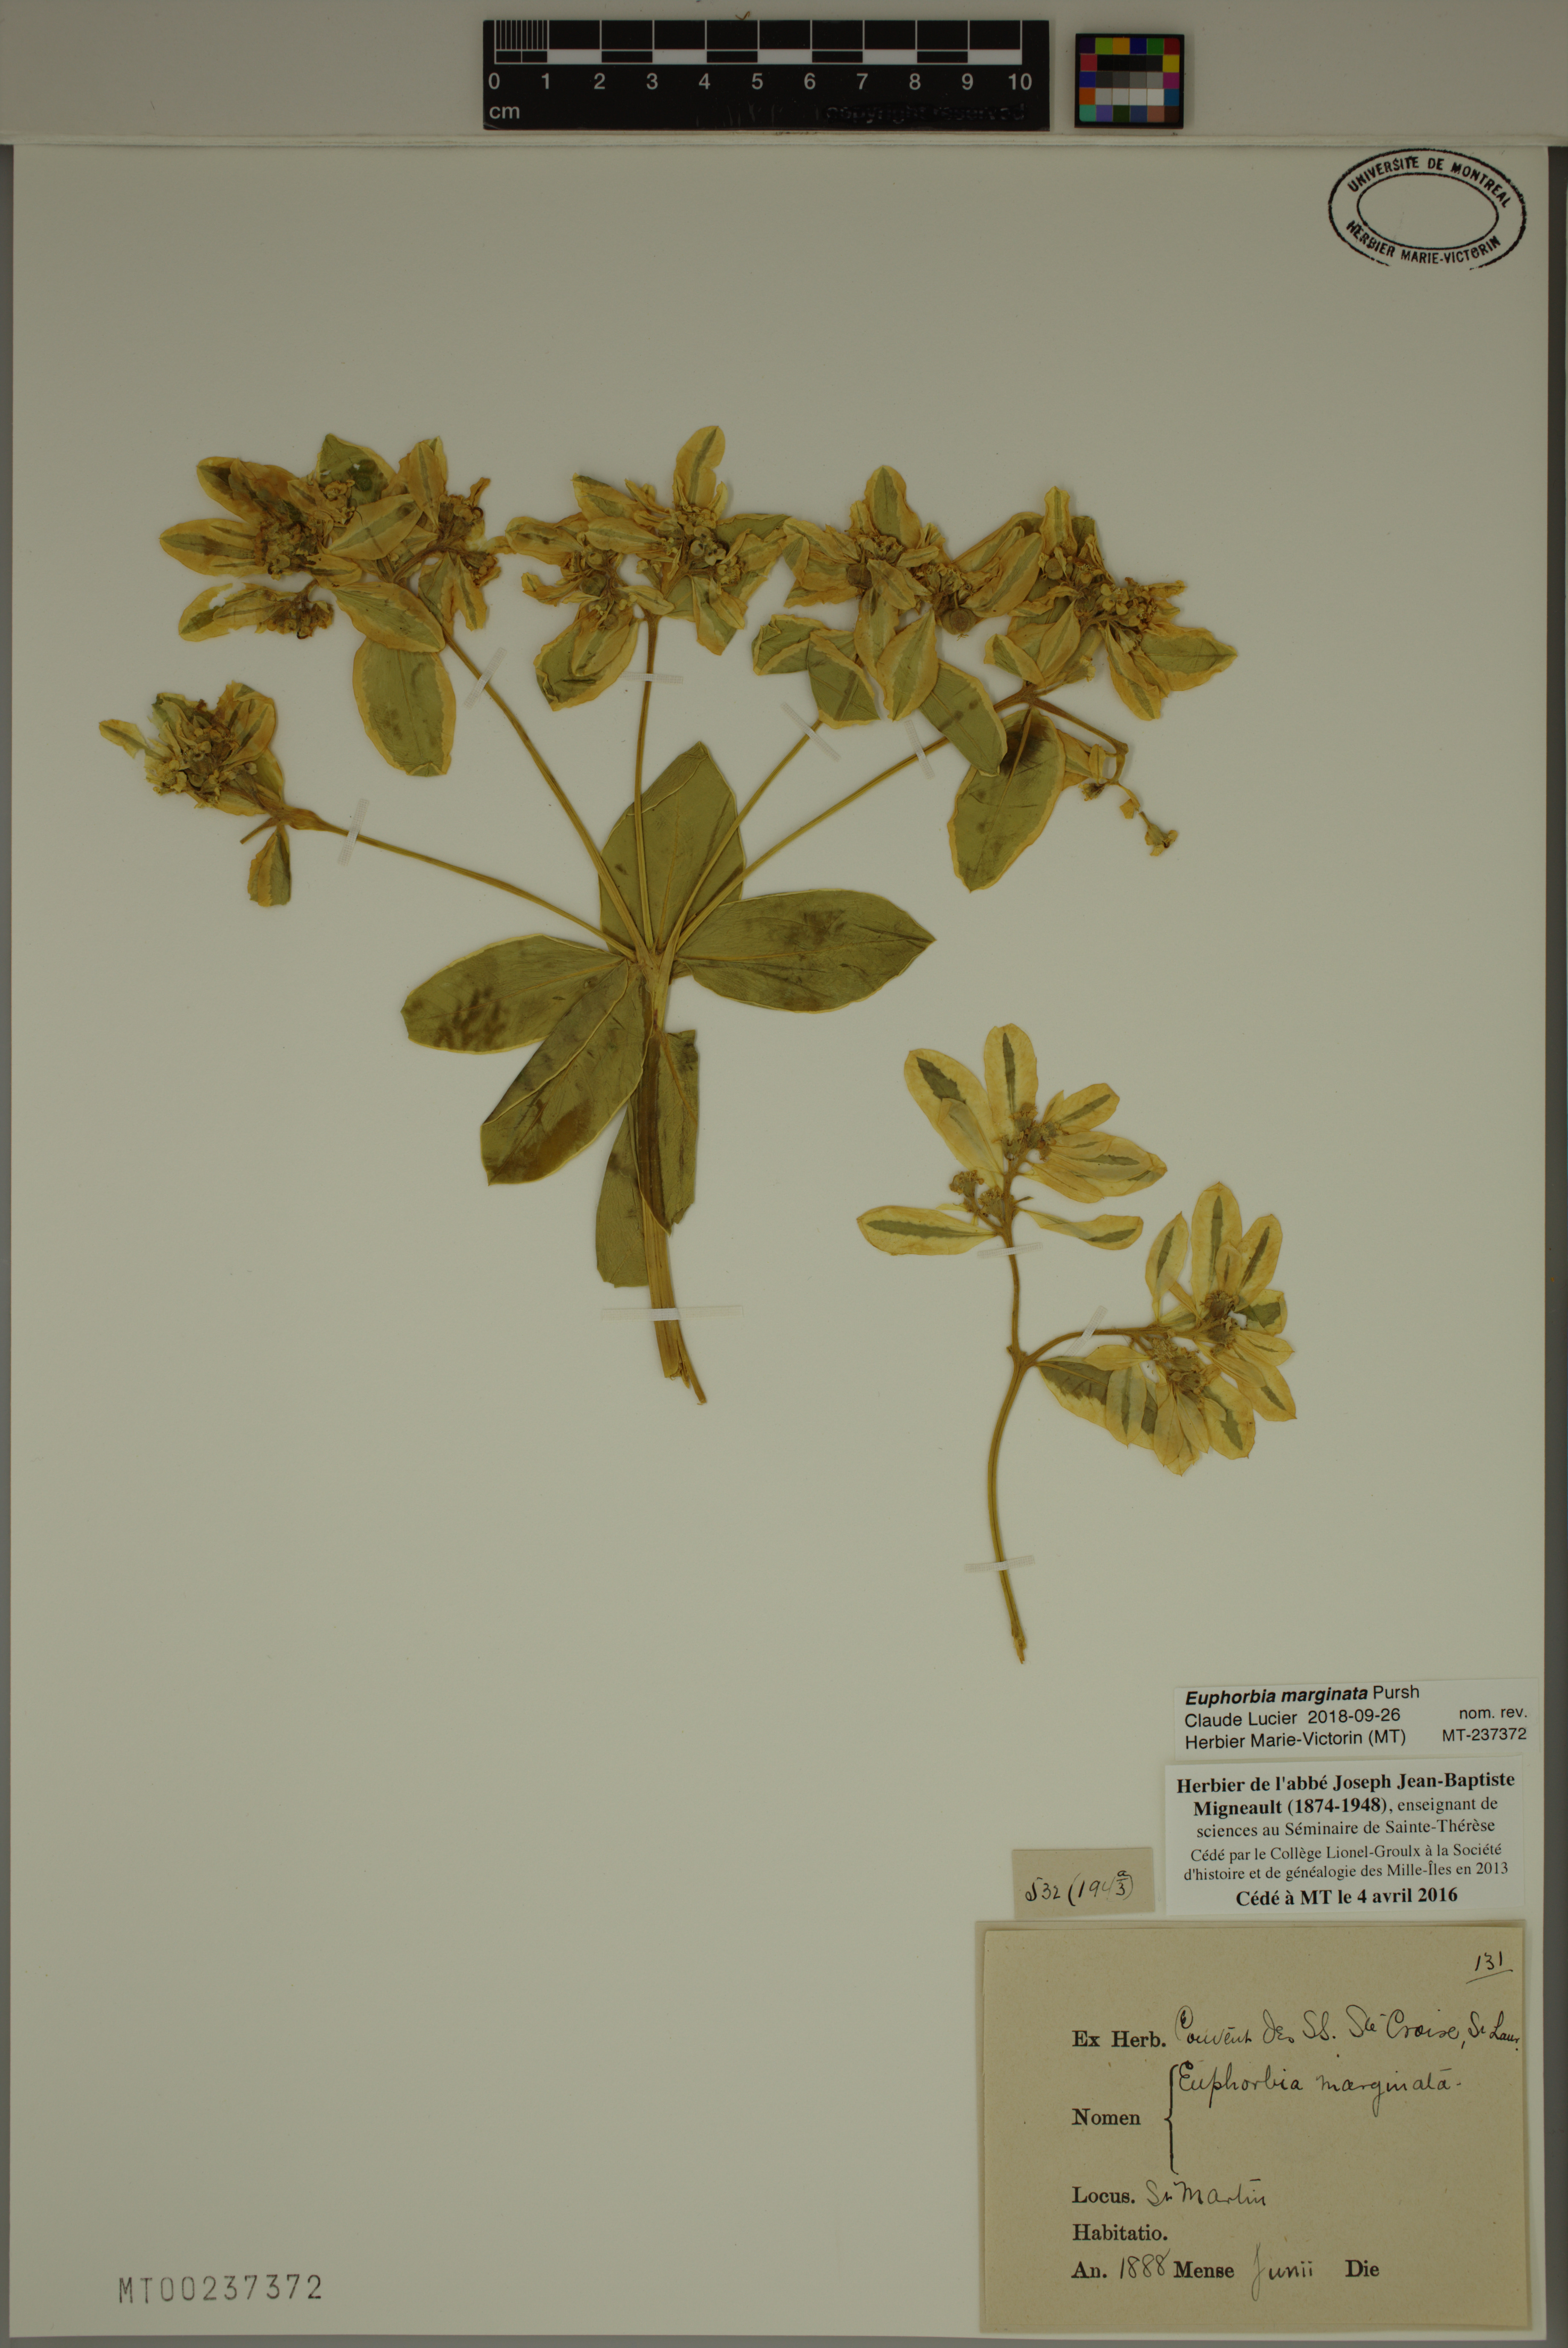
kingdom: Plantae
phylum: Tracheophyta
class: Magnoliopsida
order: Malpighiales
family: Euphorbiaceae
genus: Euphorbia
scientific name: Euphorbia marginata
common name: Ghostweed
